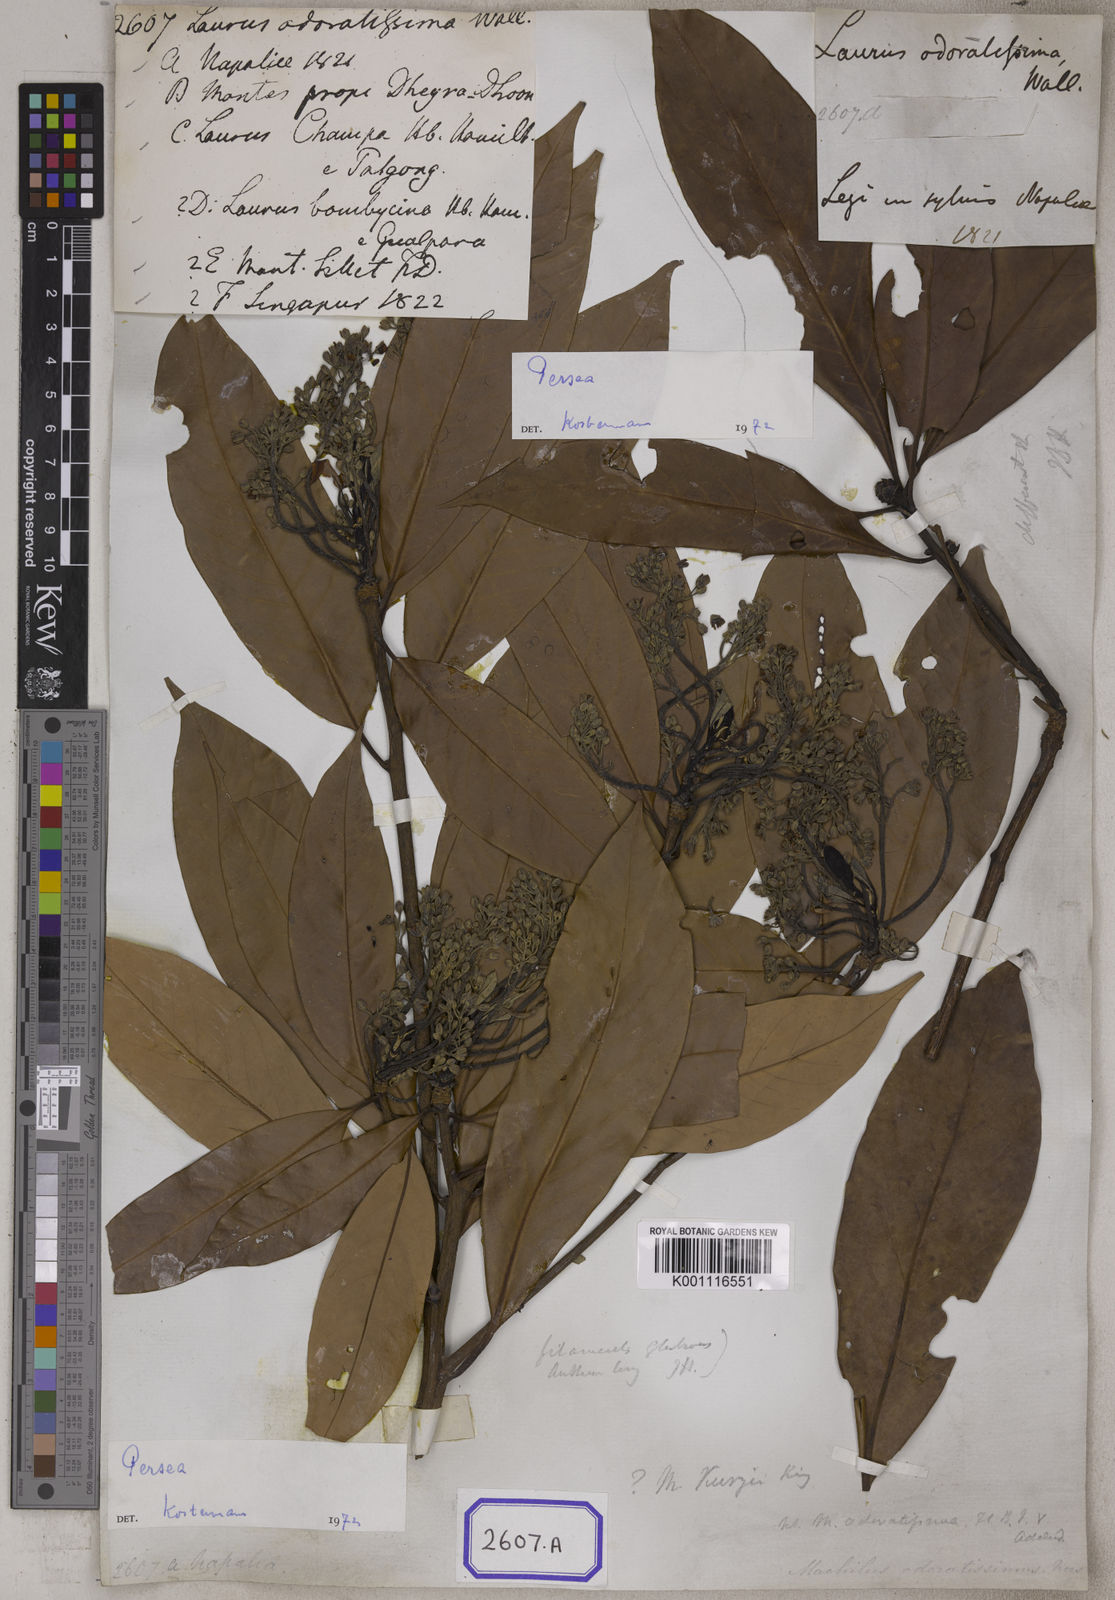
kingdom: Plantae
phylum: Tracheophyta
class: Magnoliopsida
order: Laurales
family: Lauraceae
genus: Machilus
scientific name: Machilus odoratissimus
